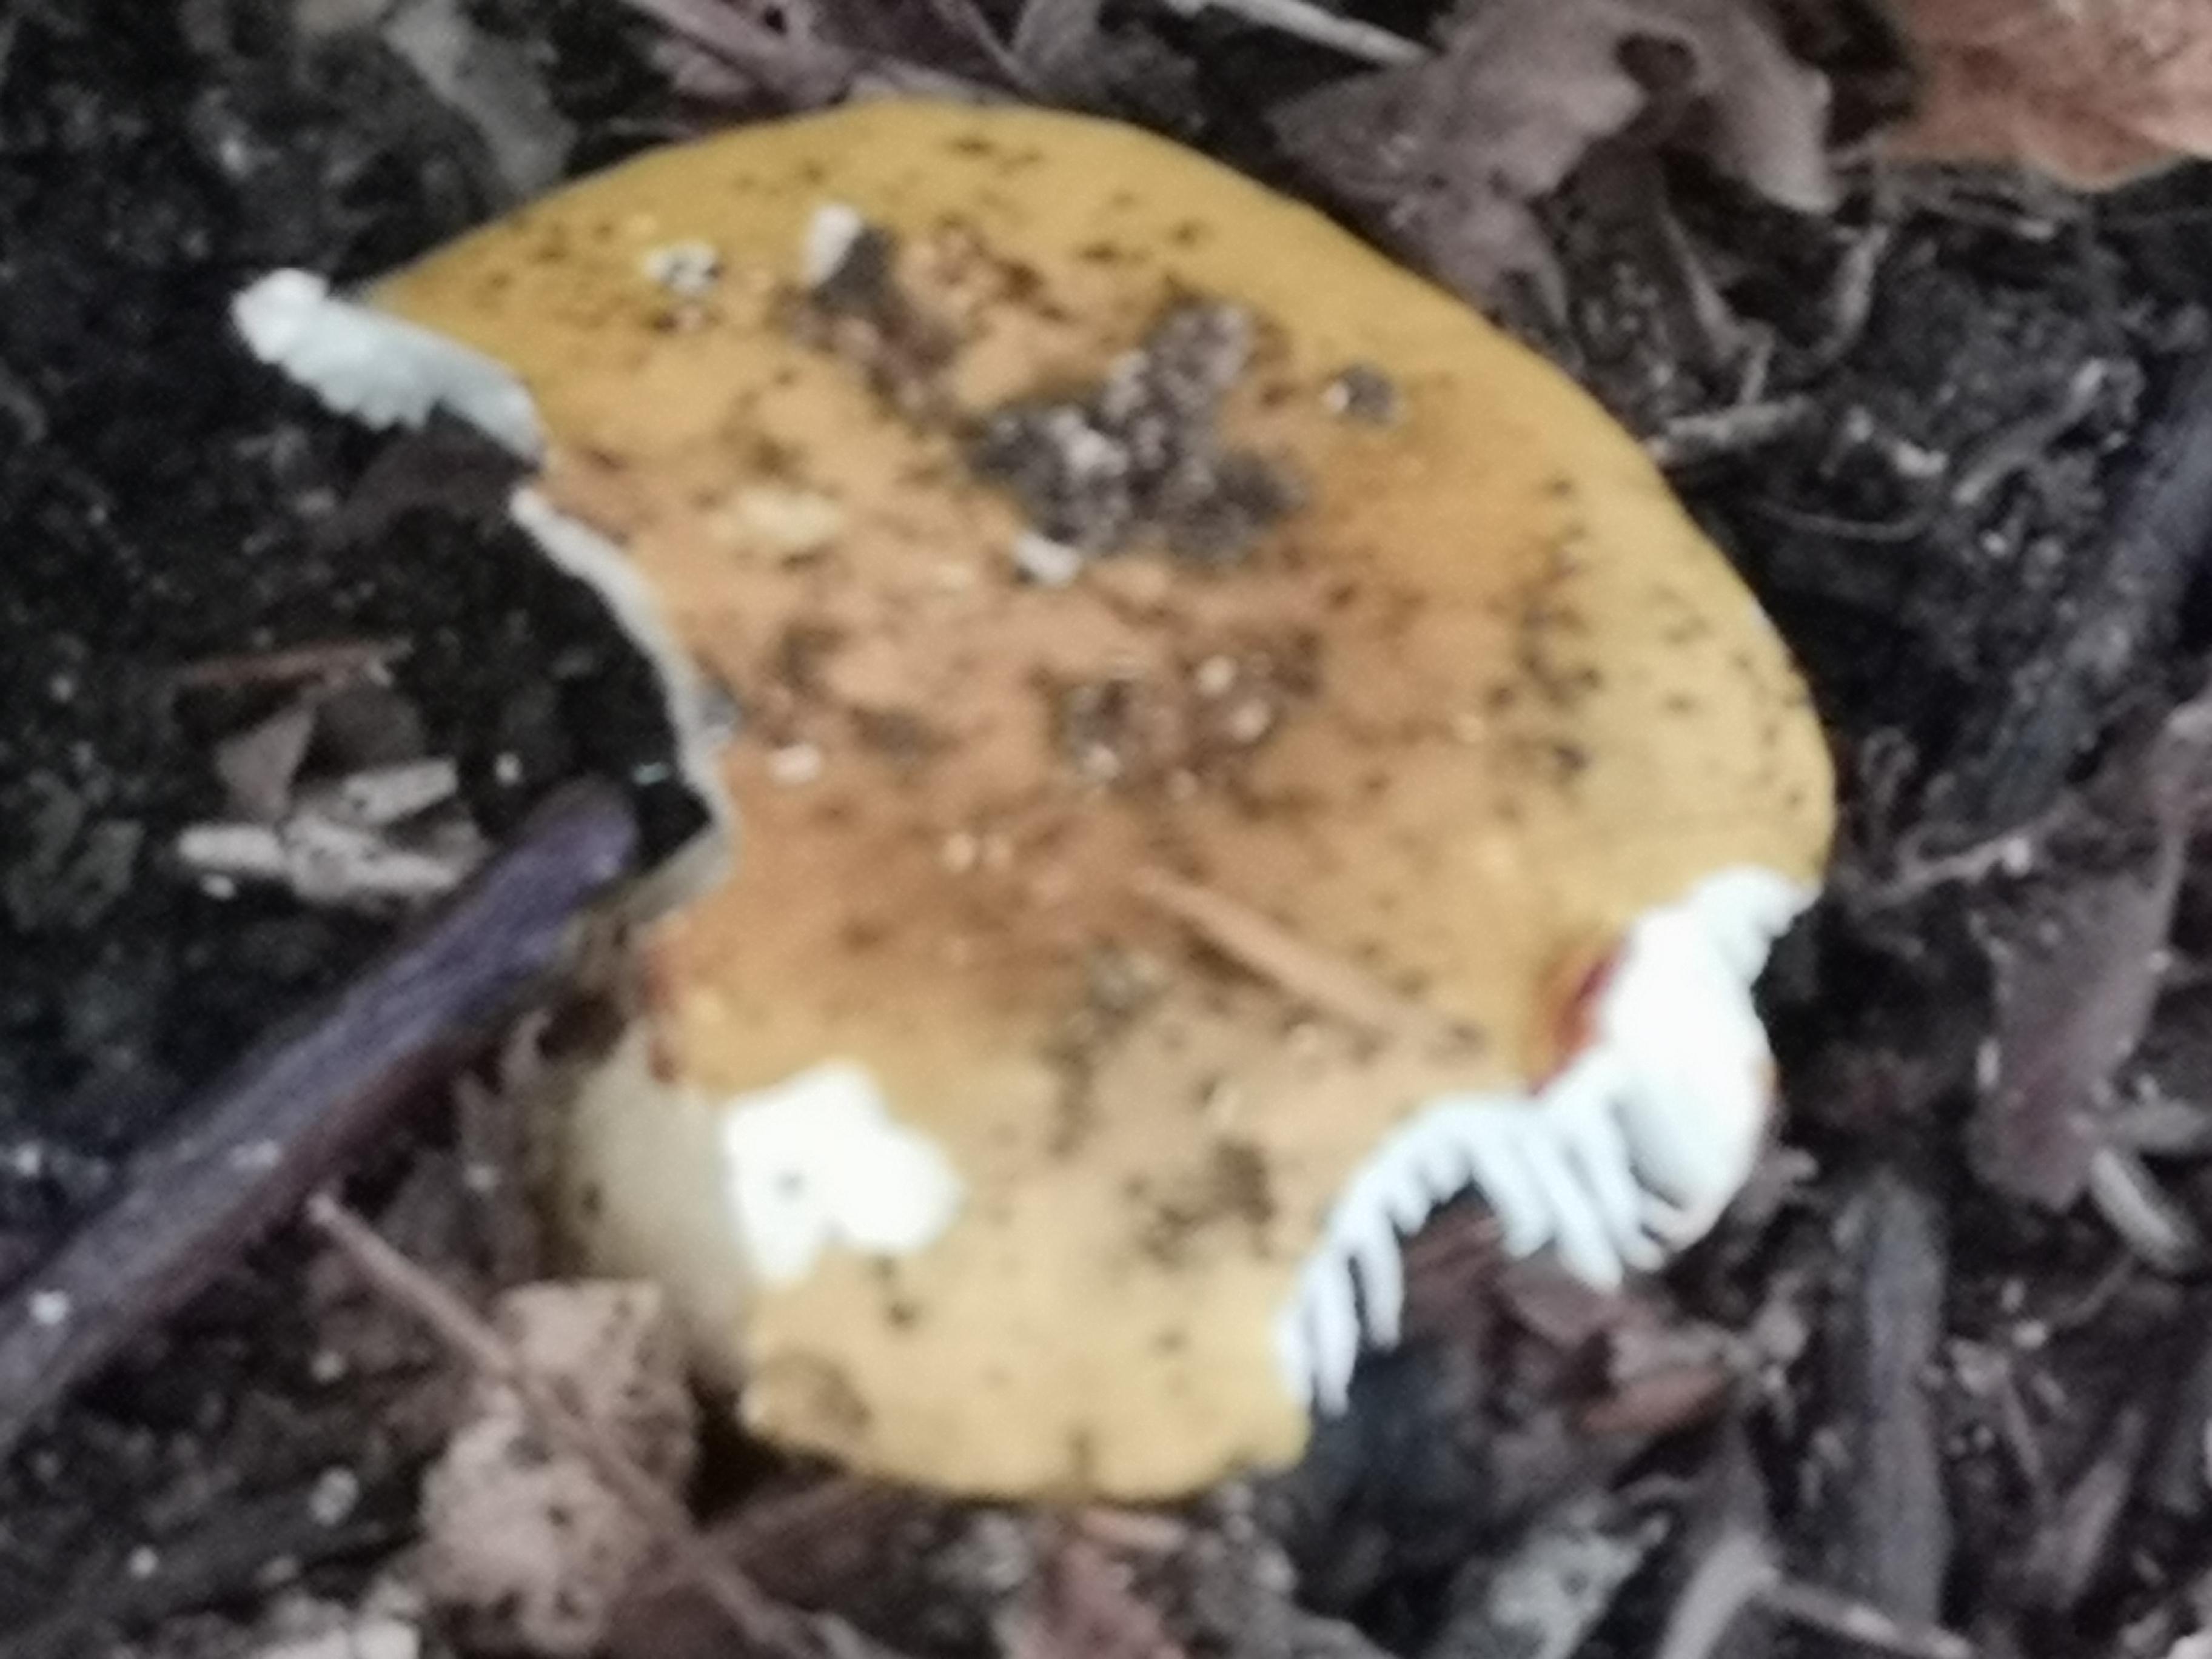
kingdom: Fungi
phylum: Basidiomycota
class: Agaricomycetes
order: Russulales
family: Russulaceae
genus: Russula
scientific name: Russula ochroleuca
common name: okkergul skørhat
